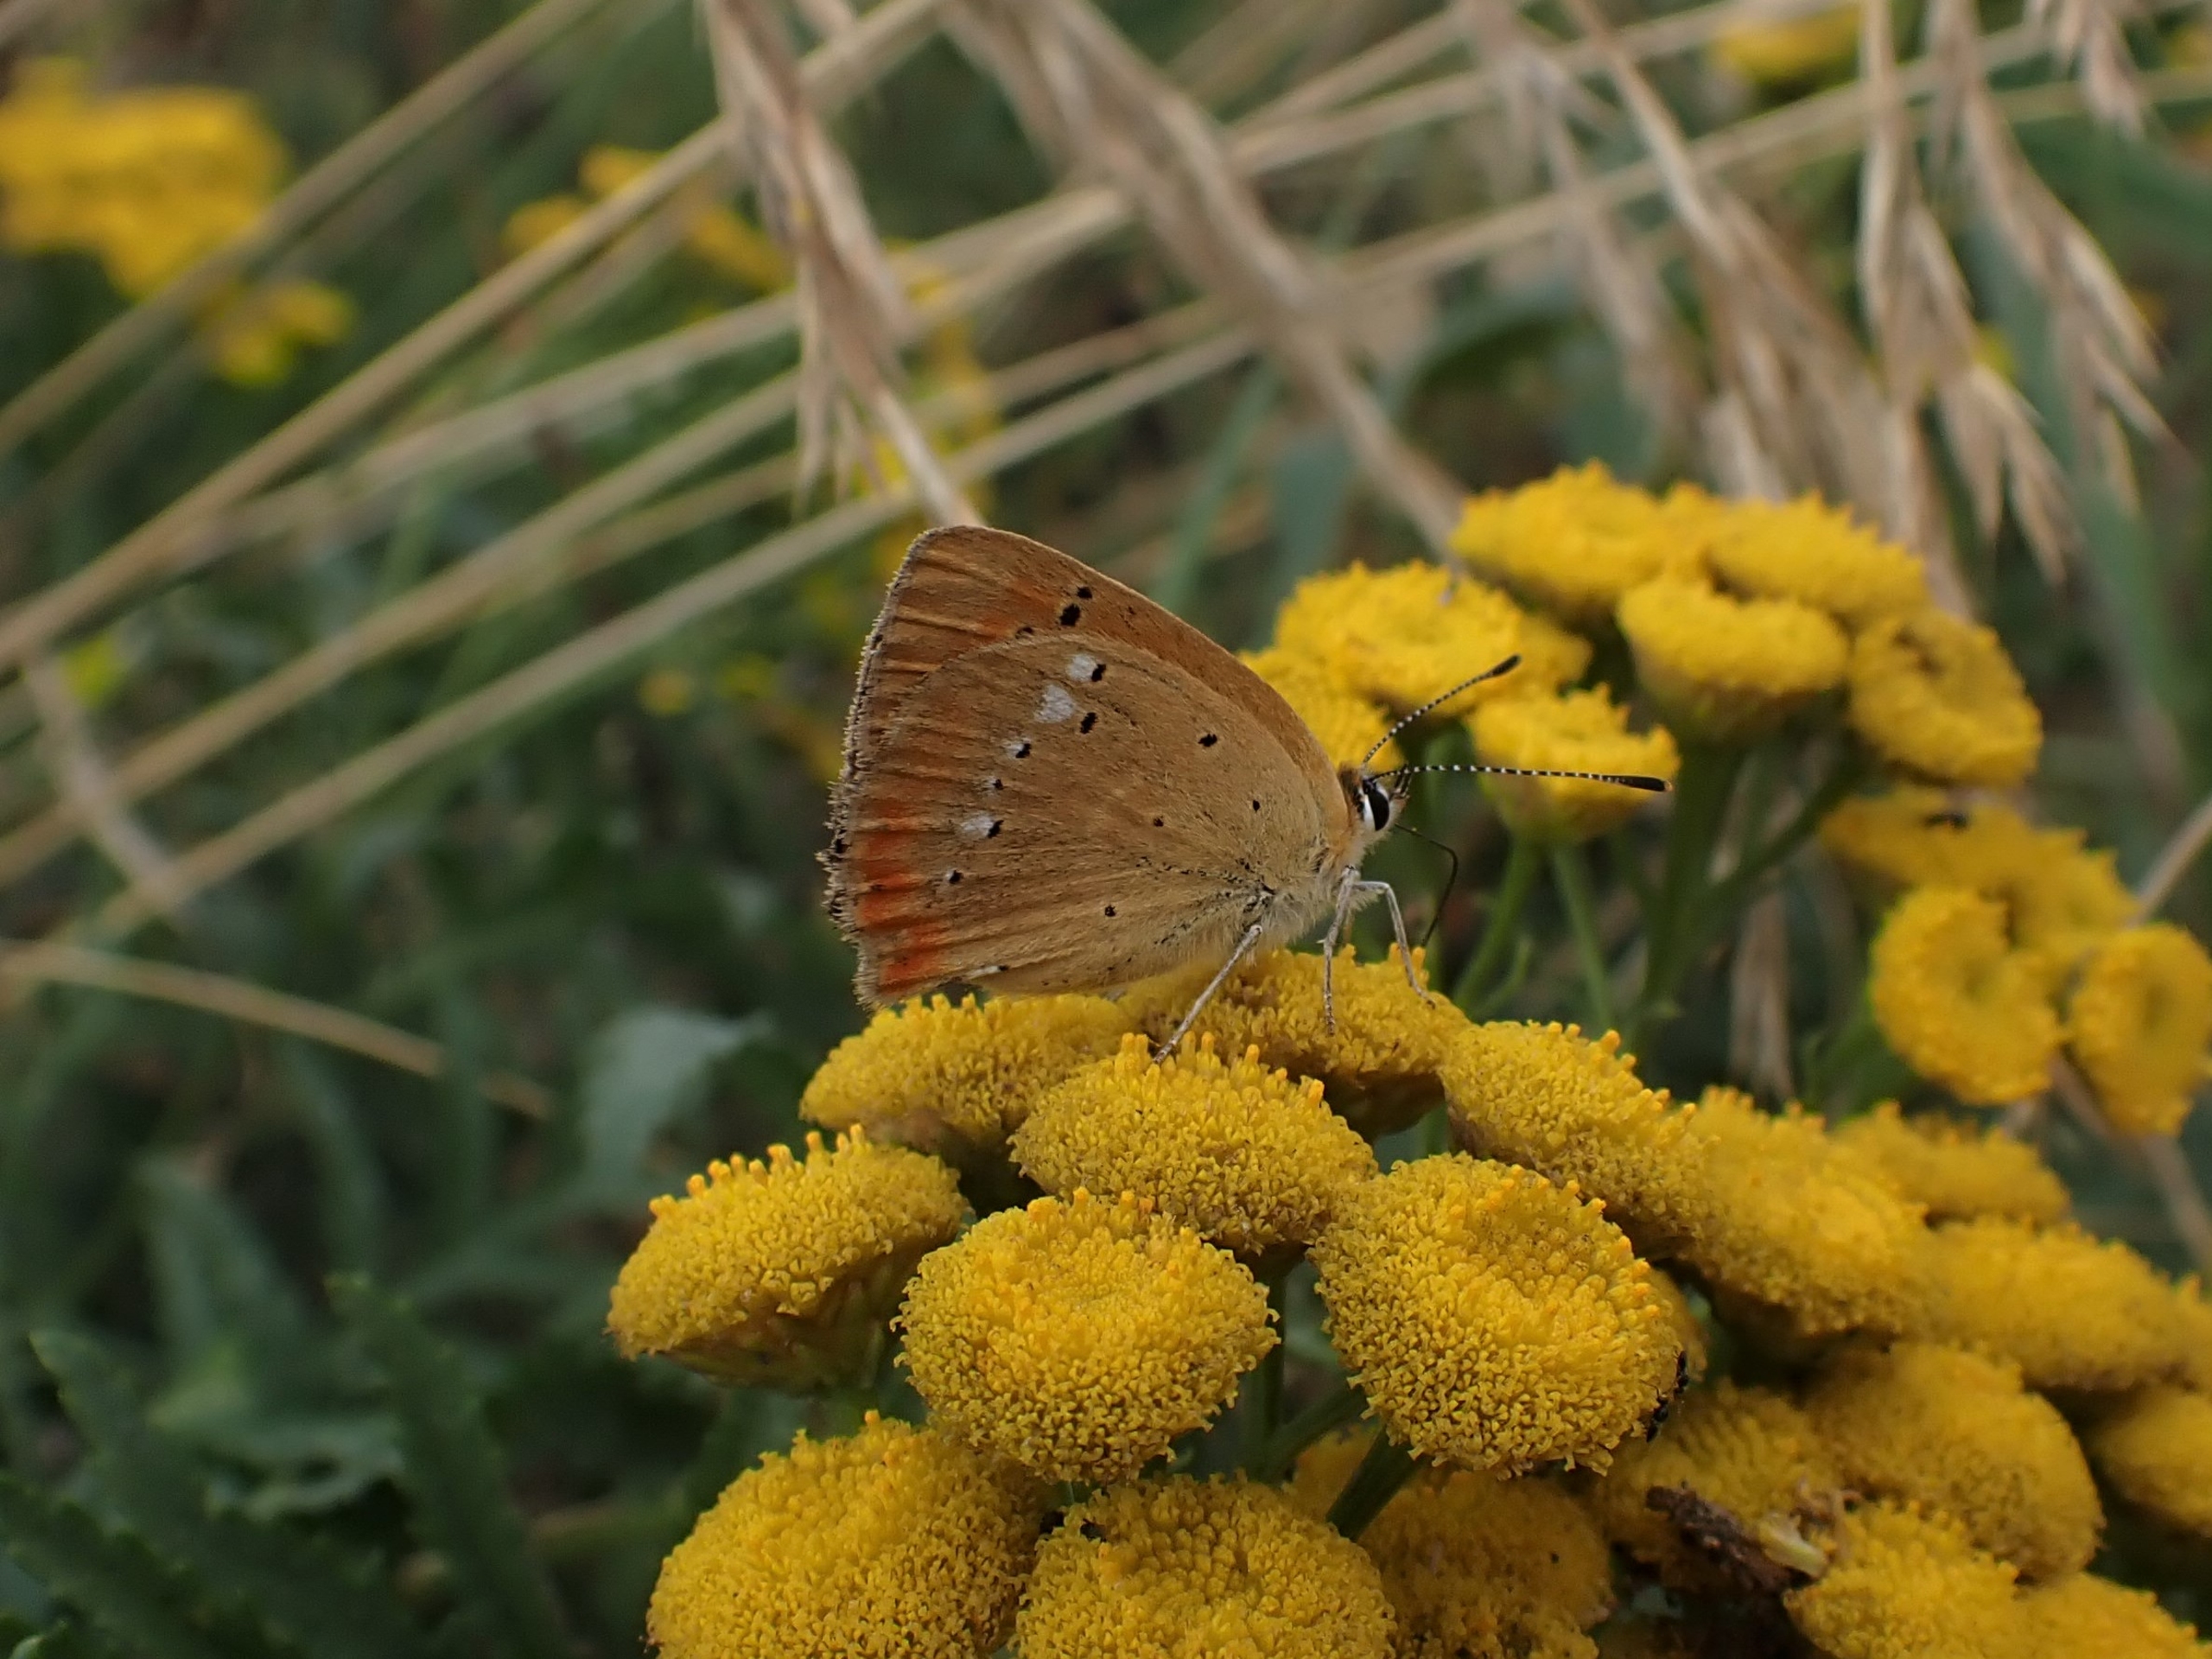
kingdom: Animalia
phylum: Arthropoda
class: Insecta
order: Lepidoptera
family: Lycaenidae
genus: Lycaena
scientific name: Lycaena virgaureae
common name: Dukatsommerfugl
